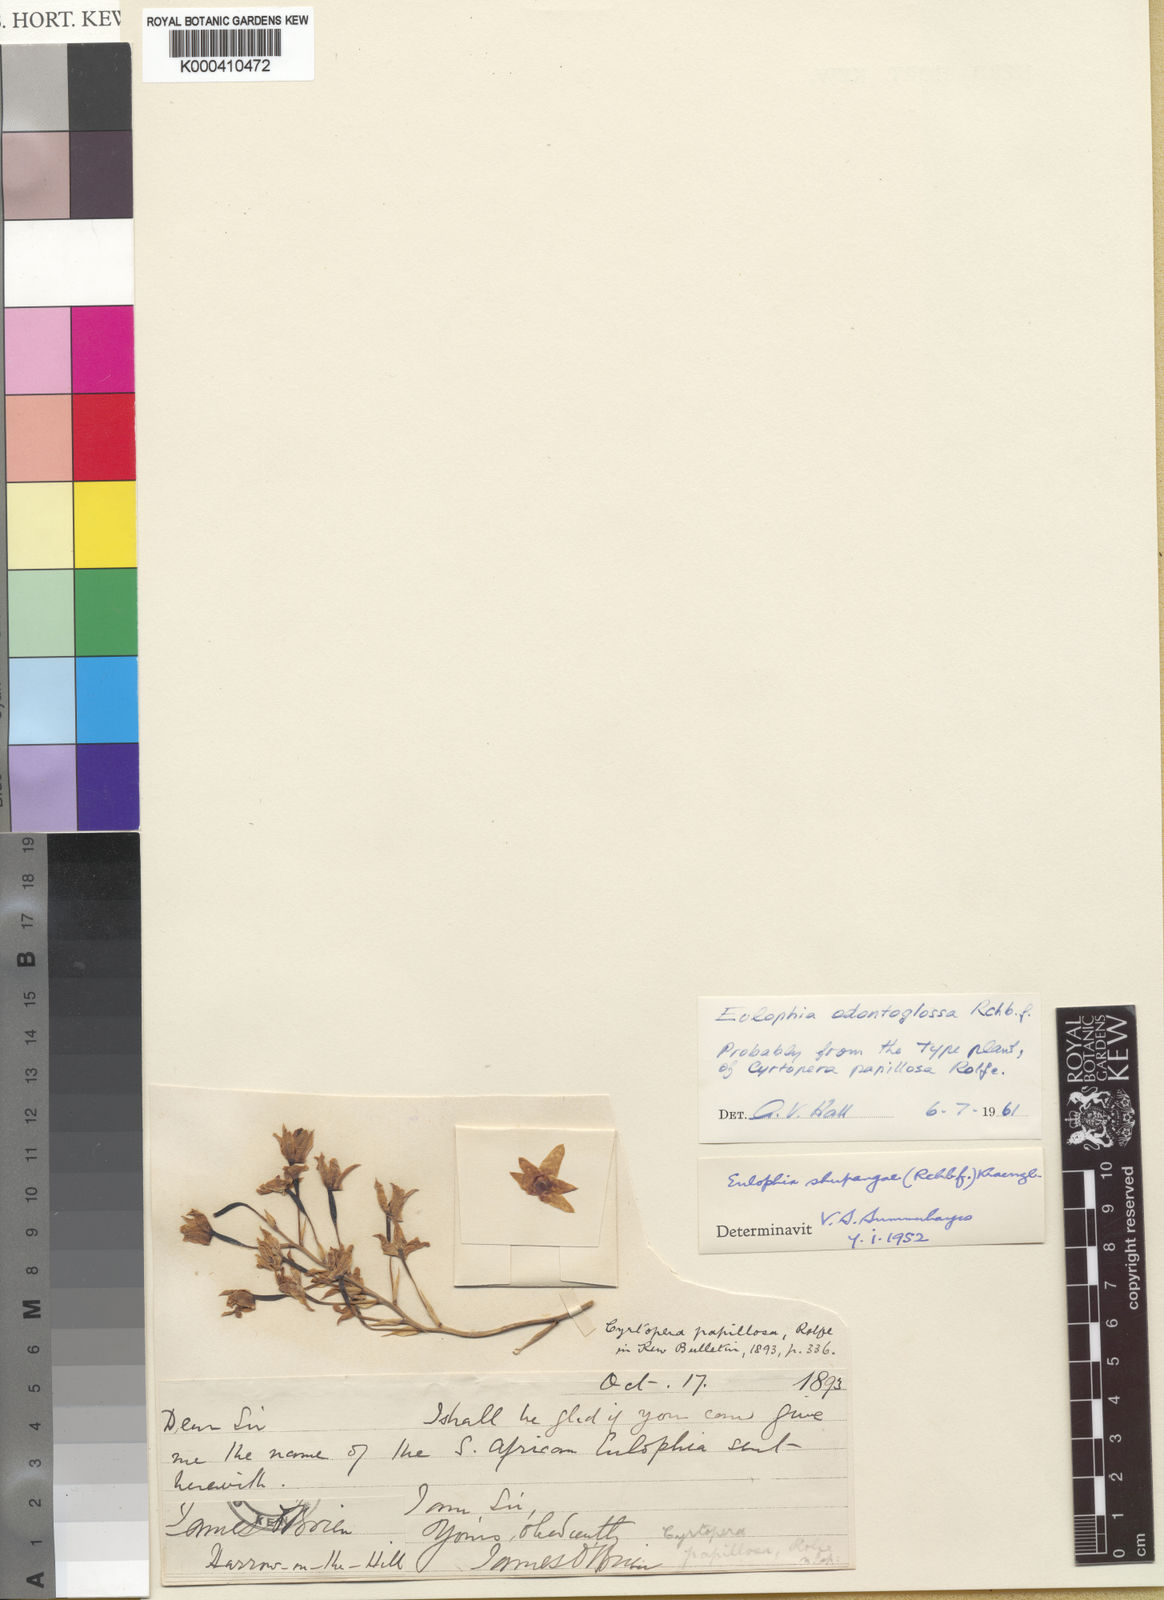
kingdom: Plantae
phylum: Tracheophyta
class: Liliopsida
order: Asparagales
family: Orchidaceae
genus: Eulophia
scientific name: Eulophia odontoglossa
